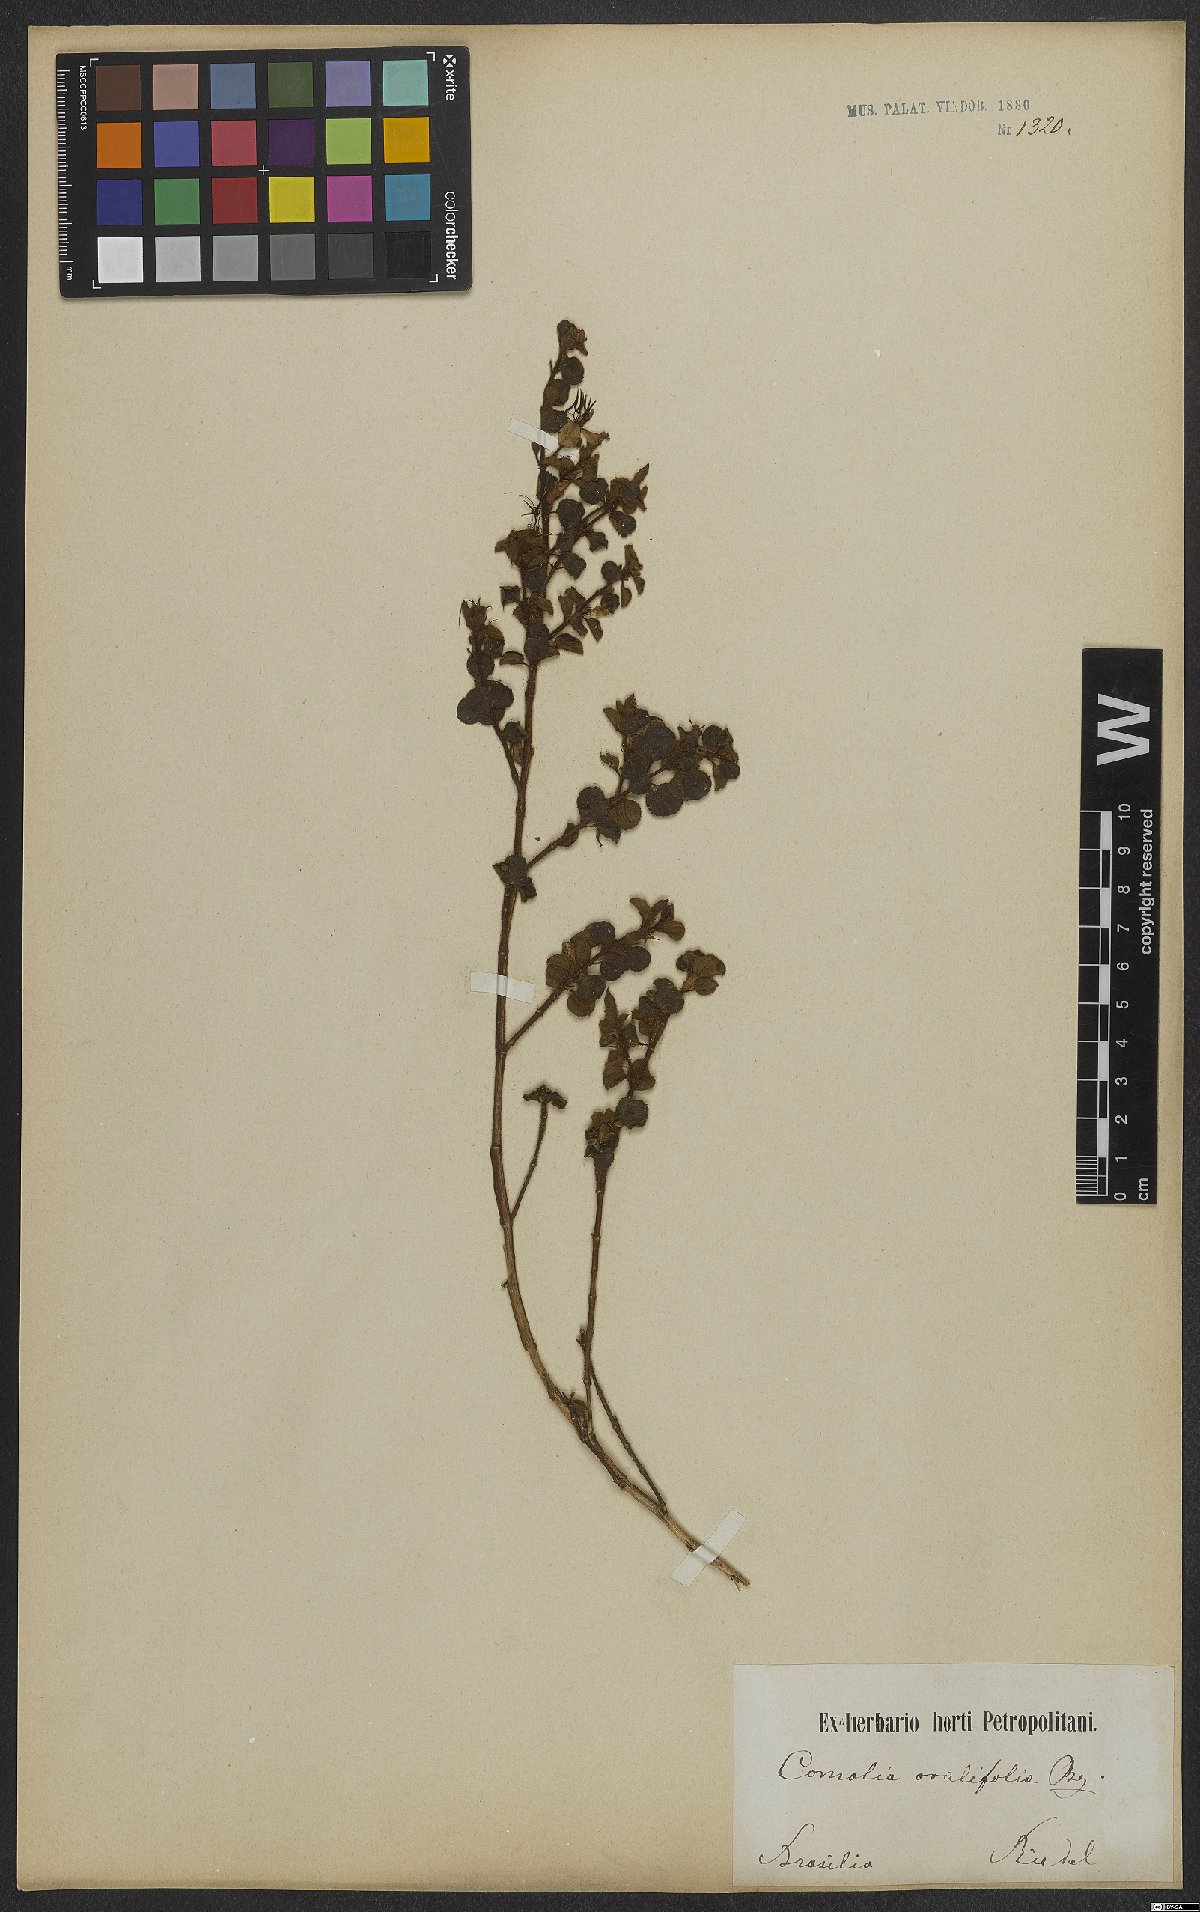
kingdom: Plantae
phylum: Tracheophyta
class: Magnoliopsida
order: Myrtales
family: Melastomataceae
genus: Comolia
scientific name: Comolia ovalifolia
